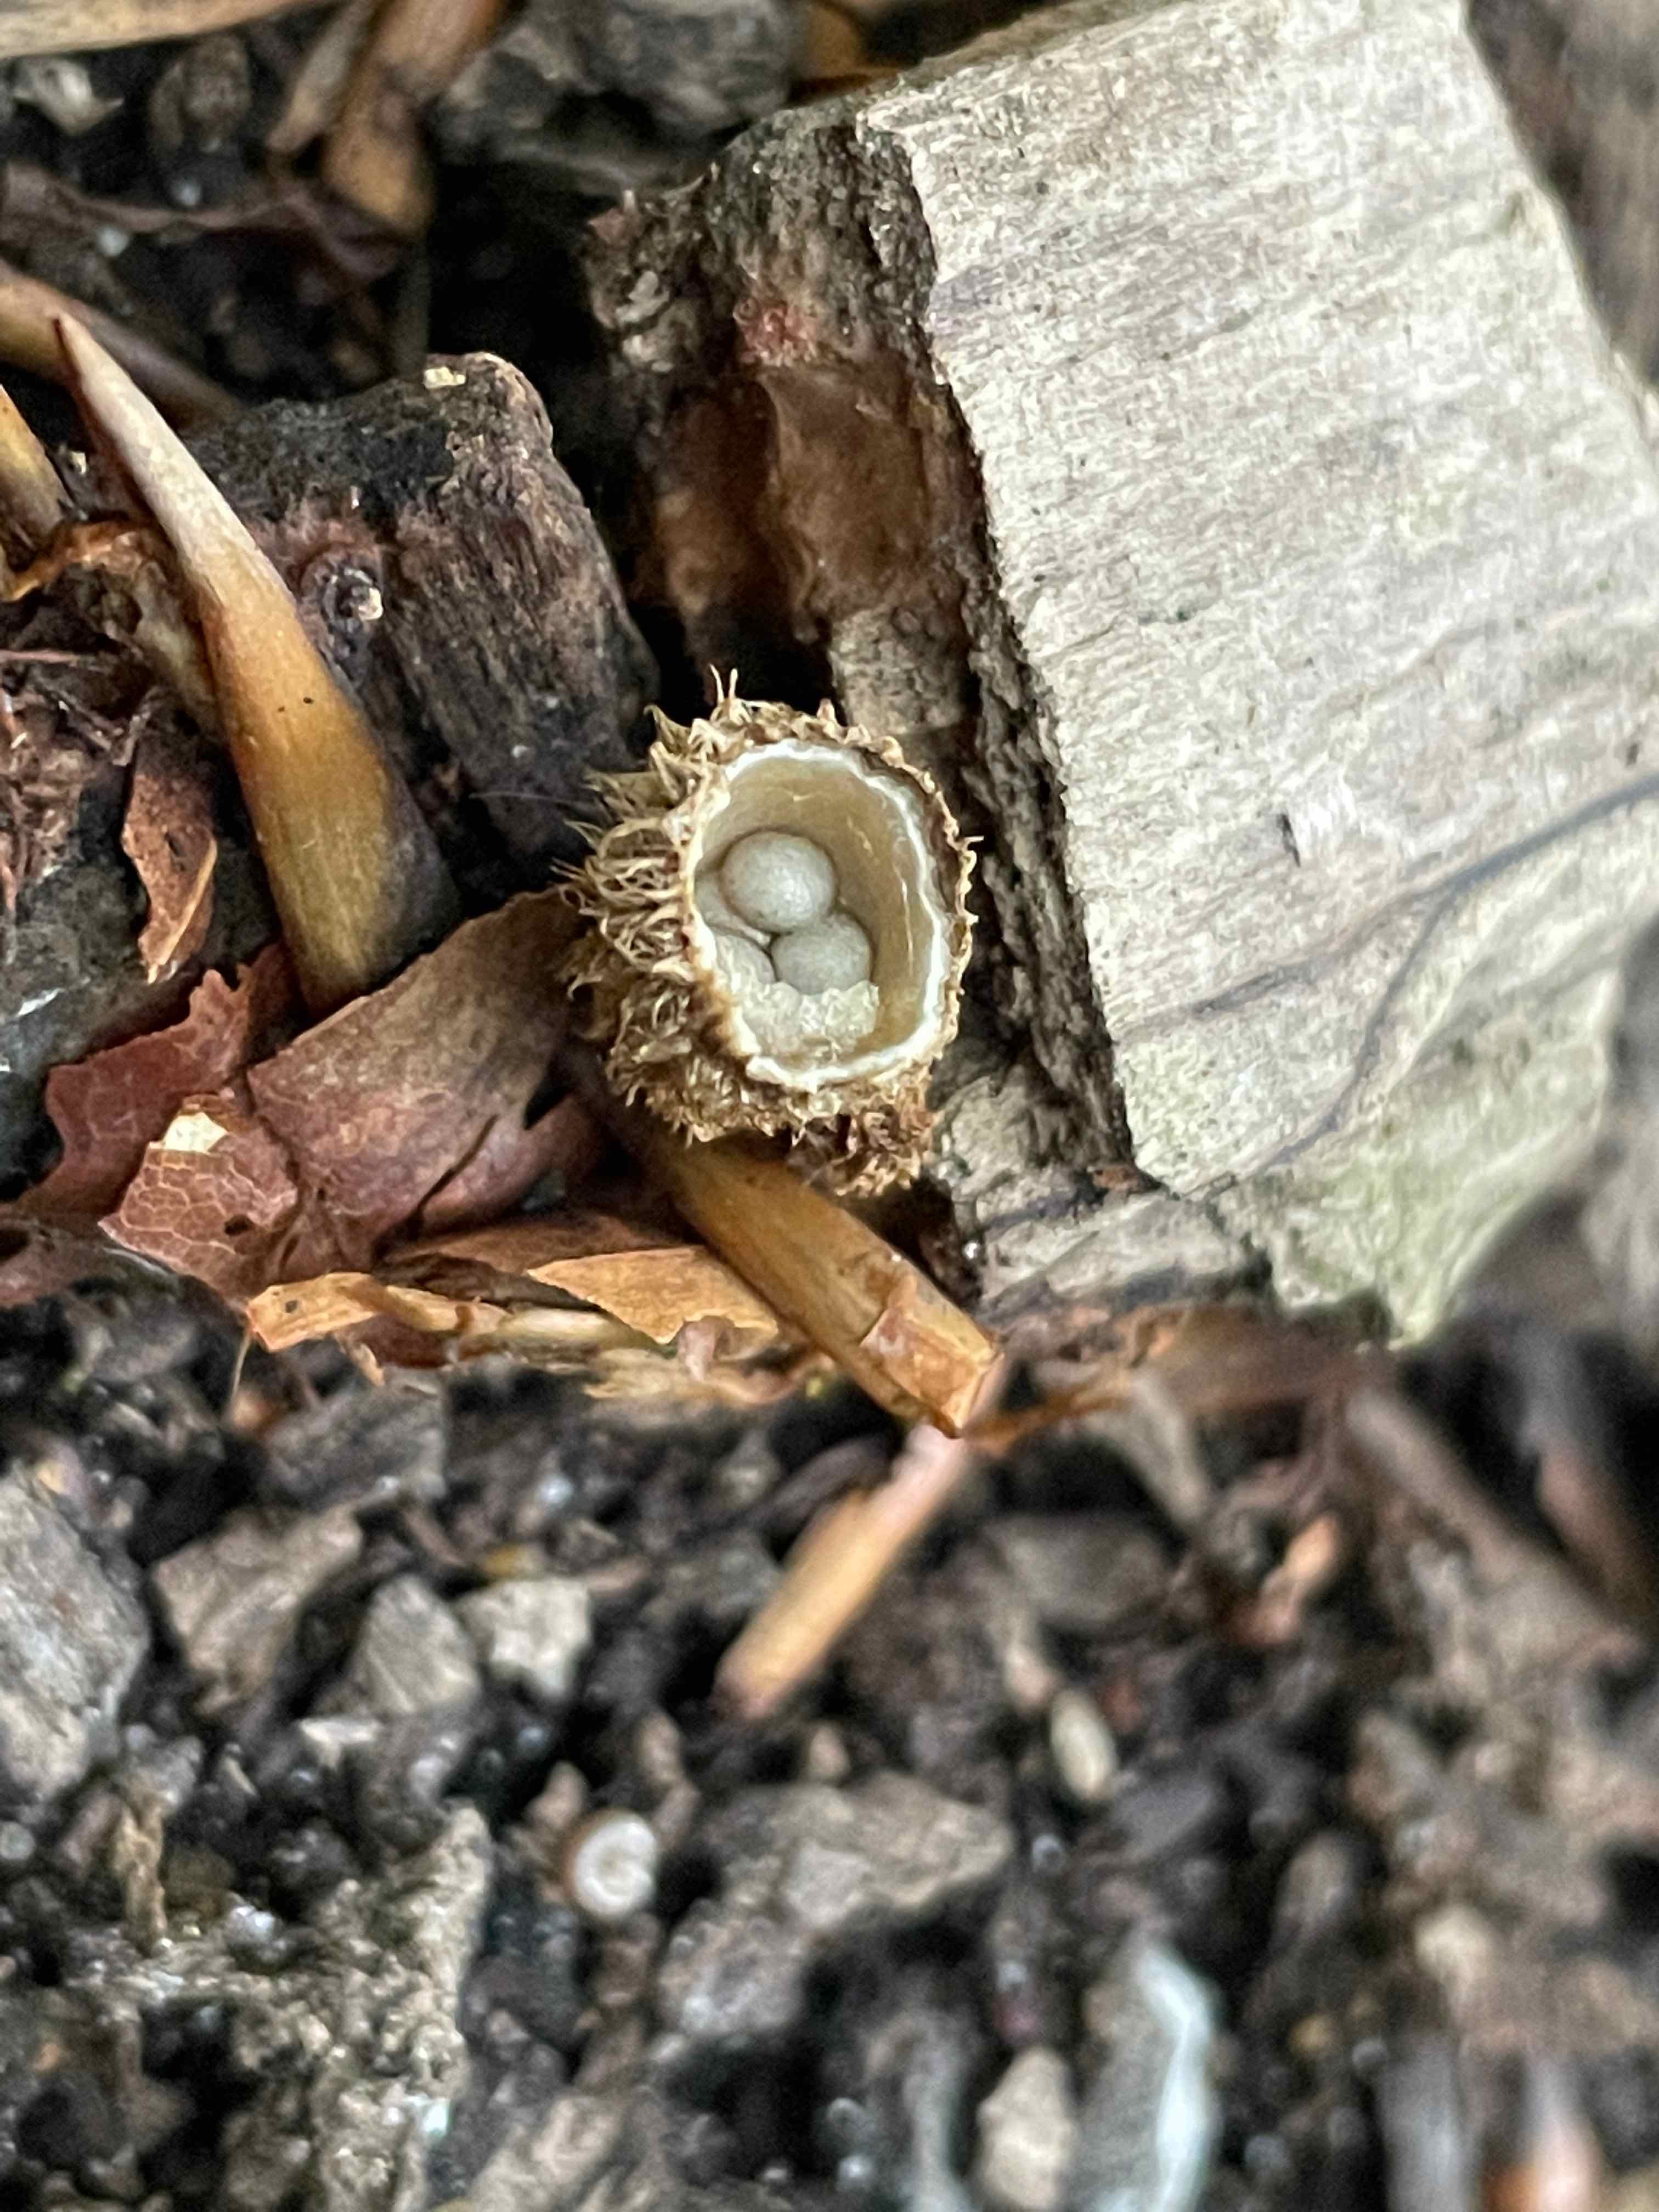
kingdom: Fungi
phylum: Basidiomycota
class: Agaricomycetes
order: Agaricales
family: Agaricaceae
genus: Cyathus
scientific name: Cyathus striatus
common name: stribet redesvamp
